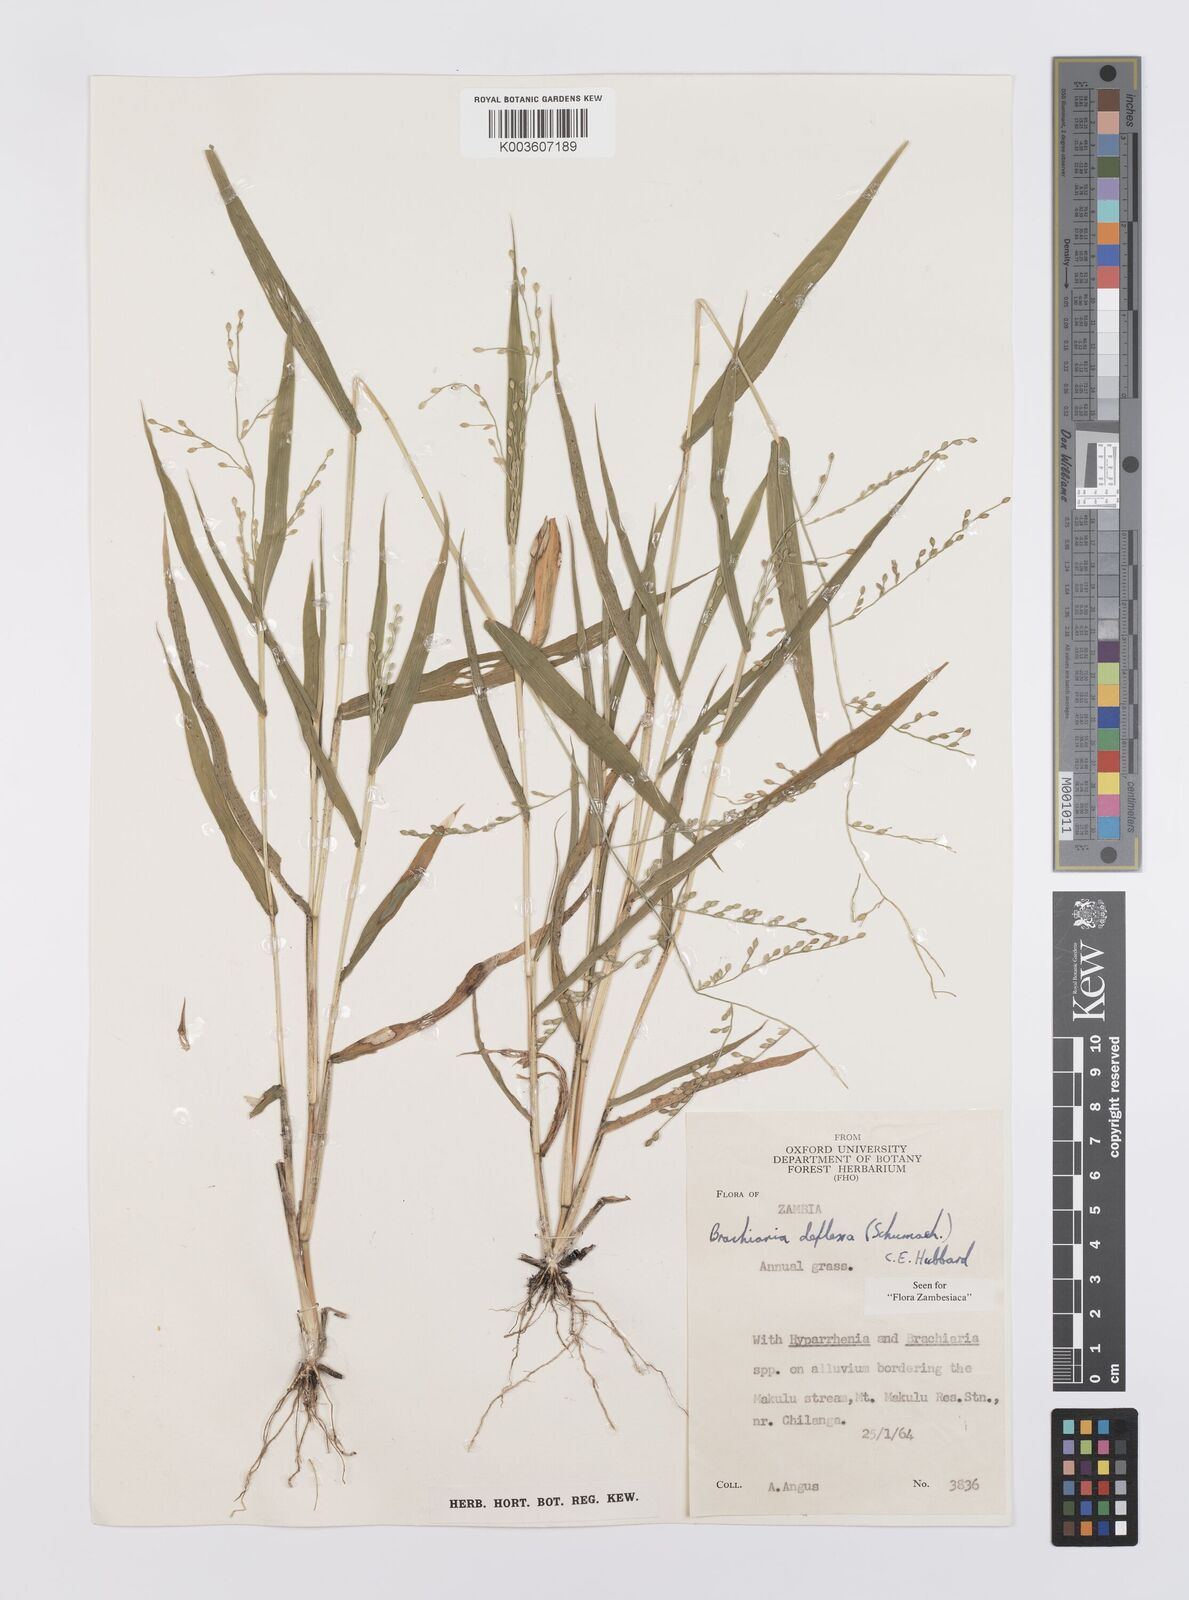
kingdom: Plantae
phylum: Tracheophyta
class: Liliopsida
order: Poales
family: Poaceae
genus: Urochloa
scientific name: Urochloa deflexa
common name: Guinea millet
